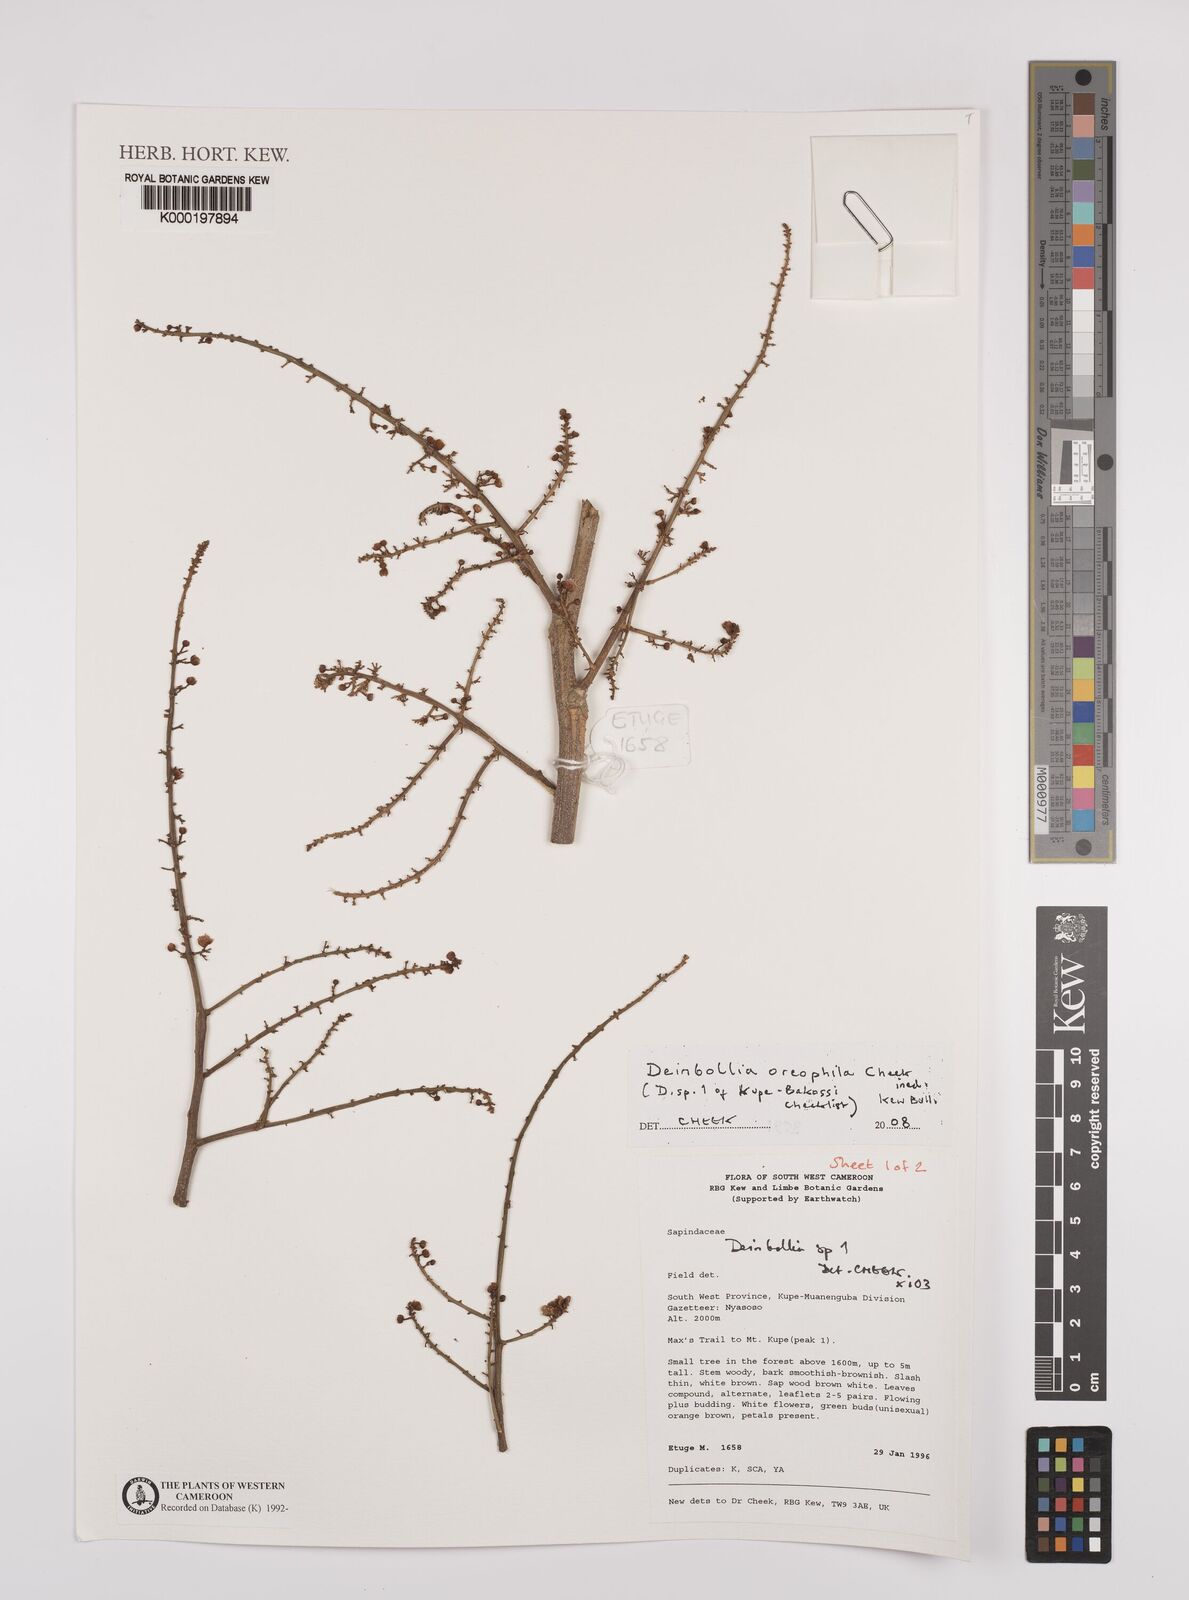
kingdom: Plantae
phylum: Tracheophyta
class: Magnoliopsida
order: Sapindales
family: Sapindaceae
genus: Deinbollia
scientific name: Deinbollia oreophila
